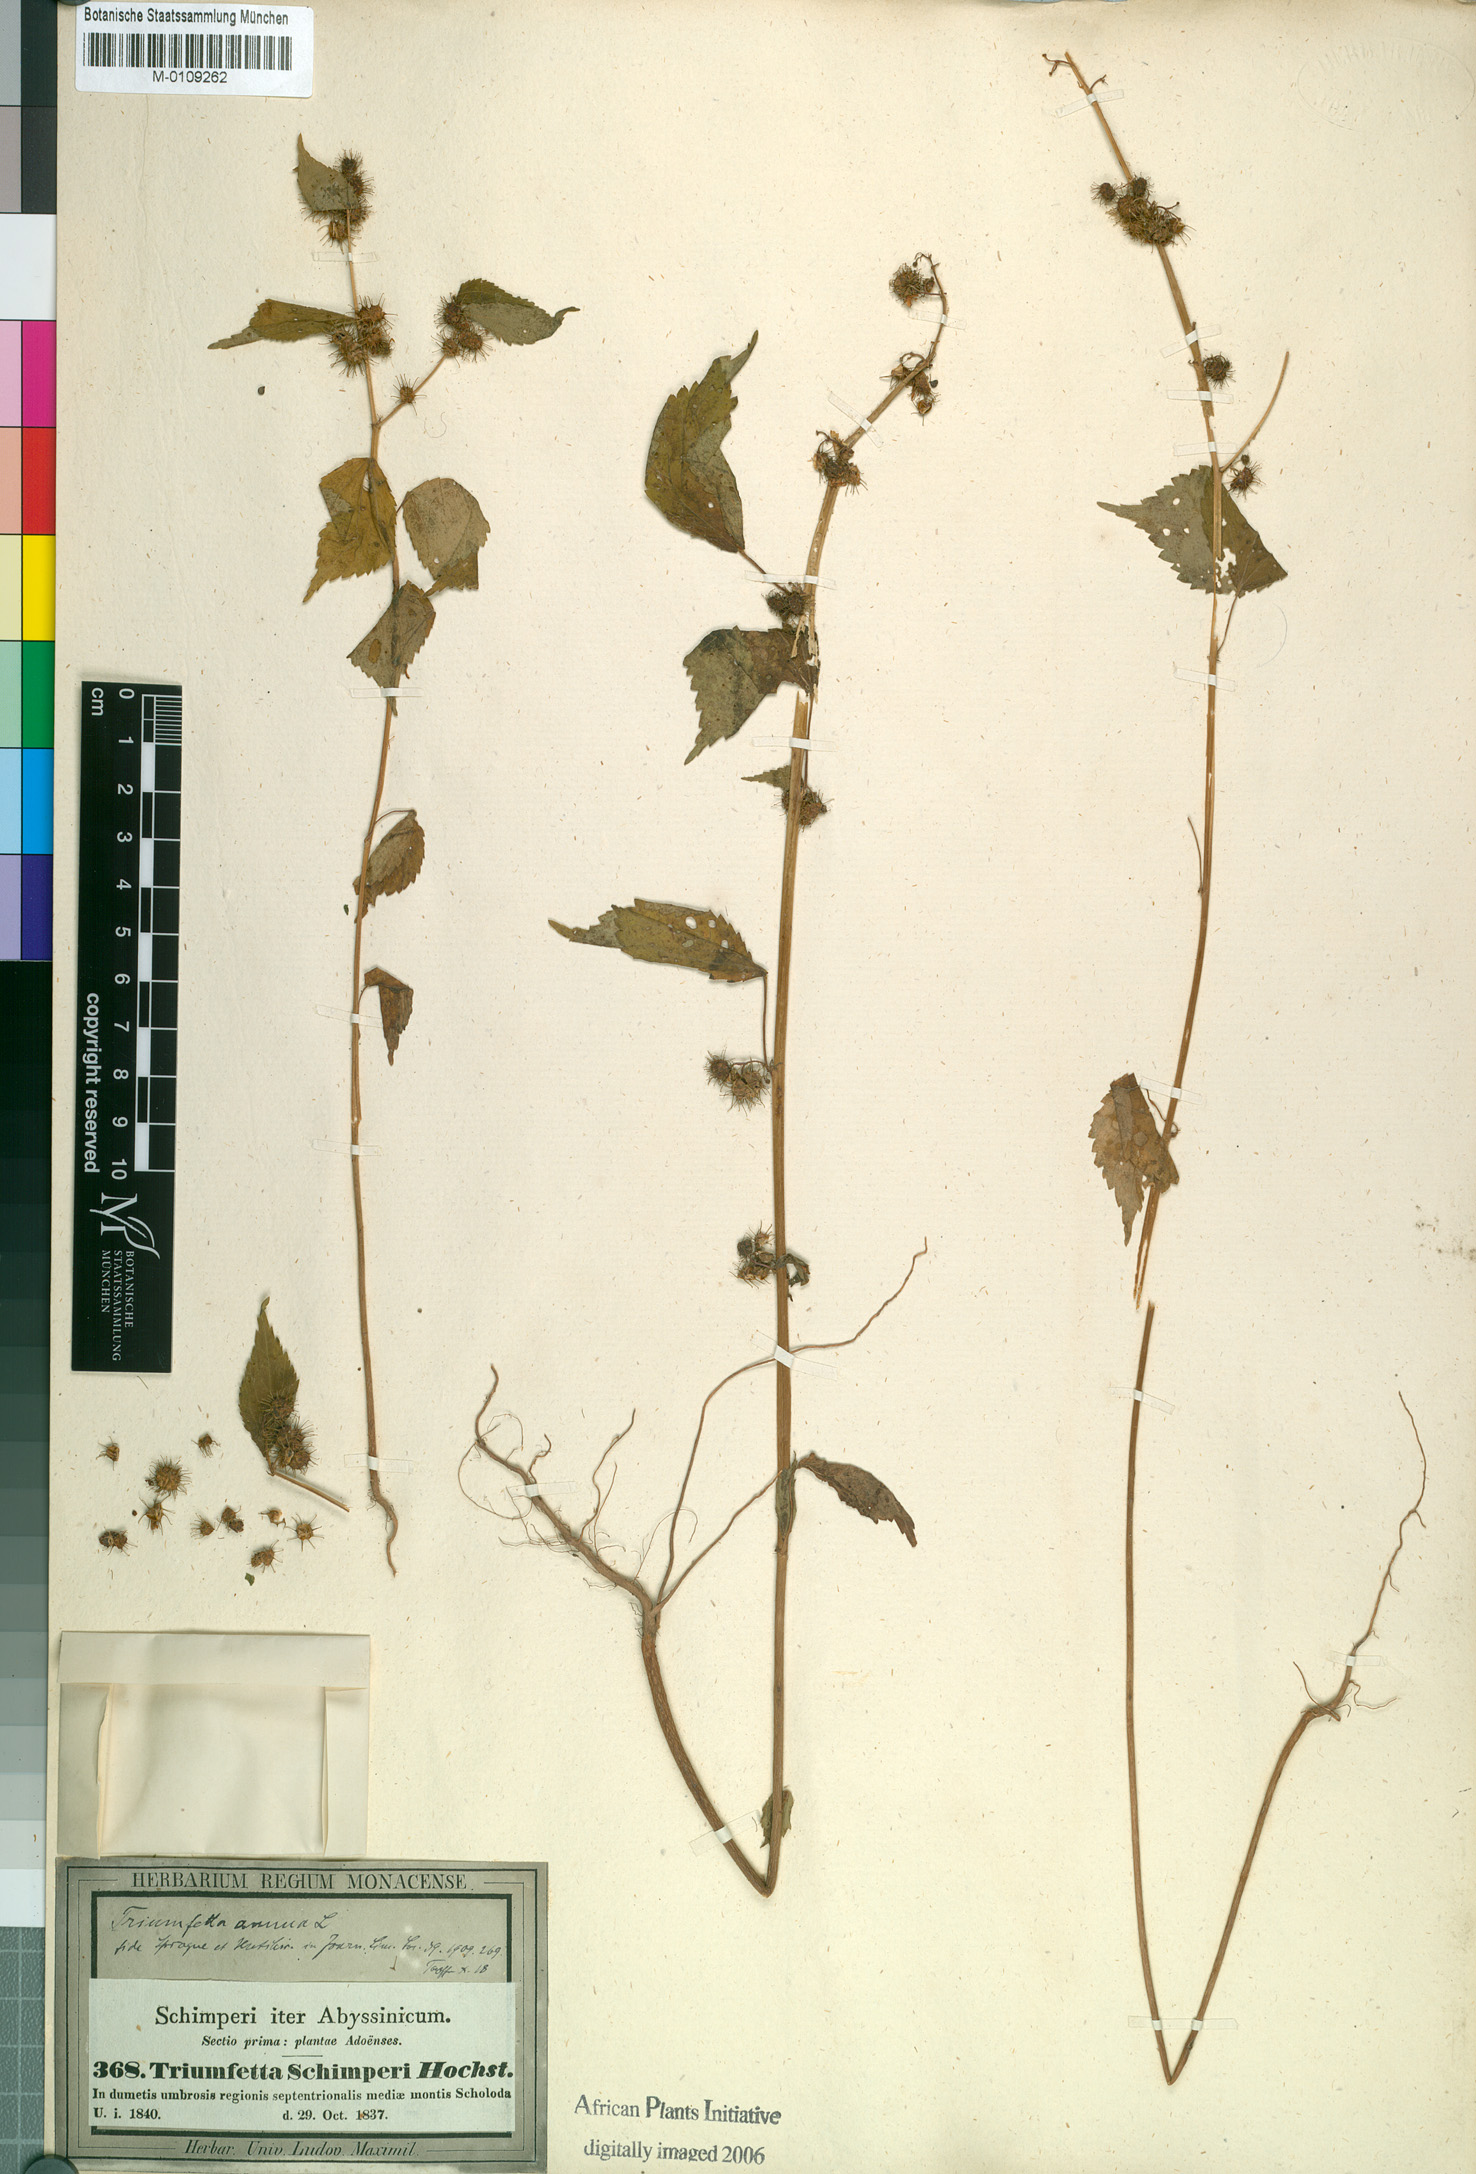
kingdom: Plantae
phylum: Tracheophyta
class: Magnoliopsida
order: Malvales
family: Malvaceae
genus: Triumfetta
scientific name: Triumfetta annua
